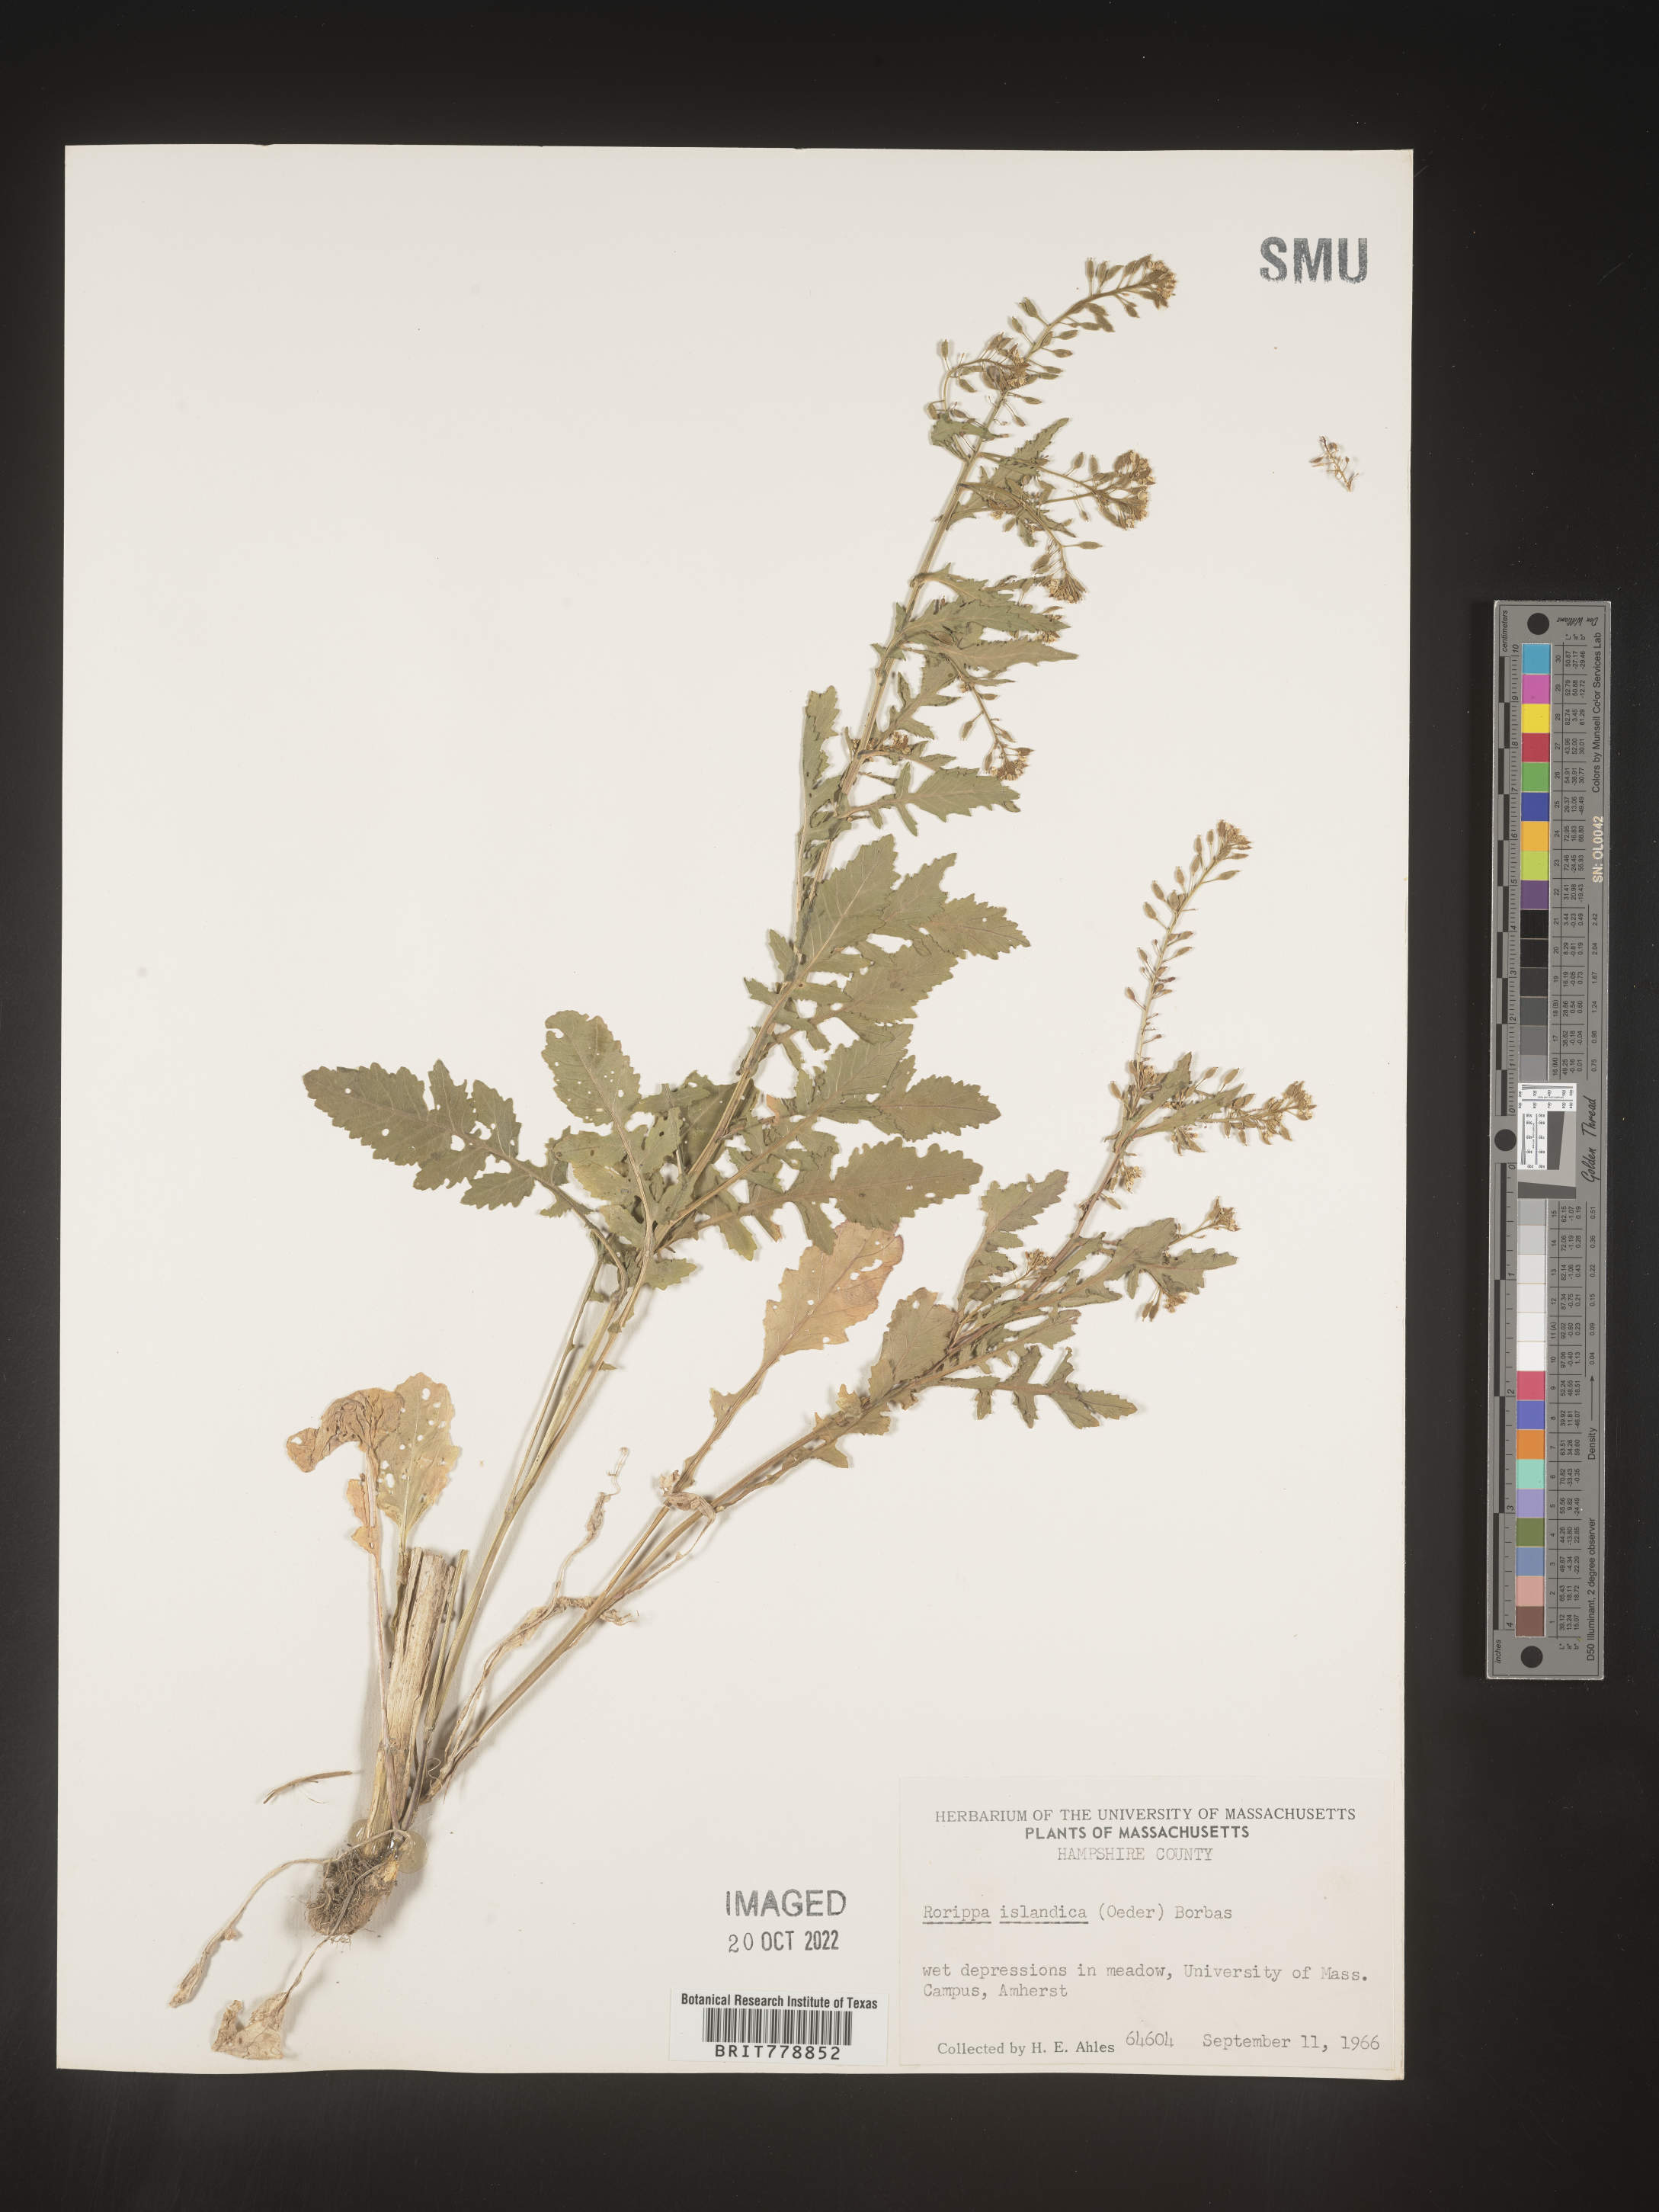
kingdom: Plantae
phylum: Tracheophyta
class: Magnoliopsida
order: Brassicales
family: Brassicaceae
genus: Rorippa
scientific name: Rorippa palustris
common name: Marsh yellow-cress
